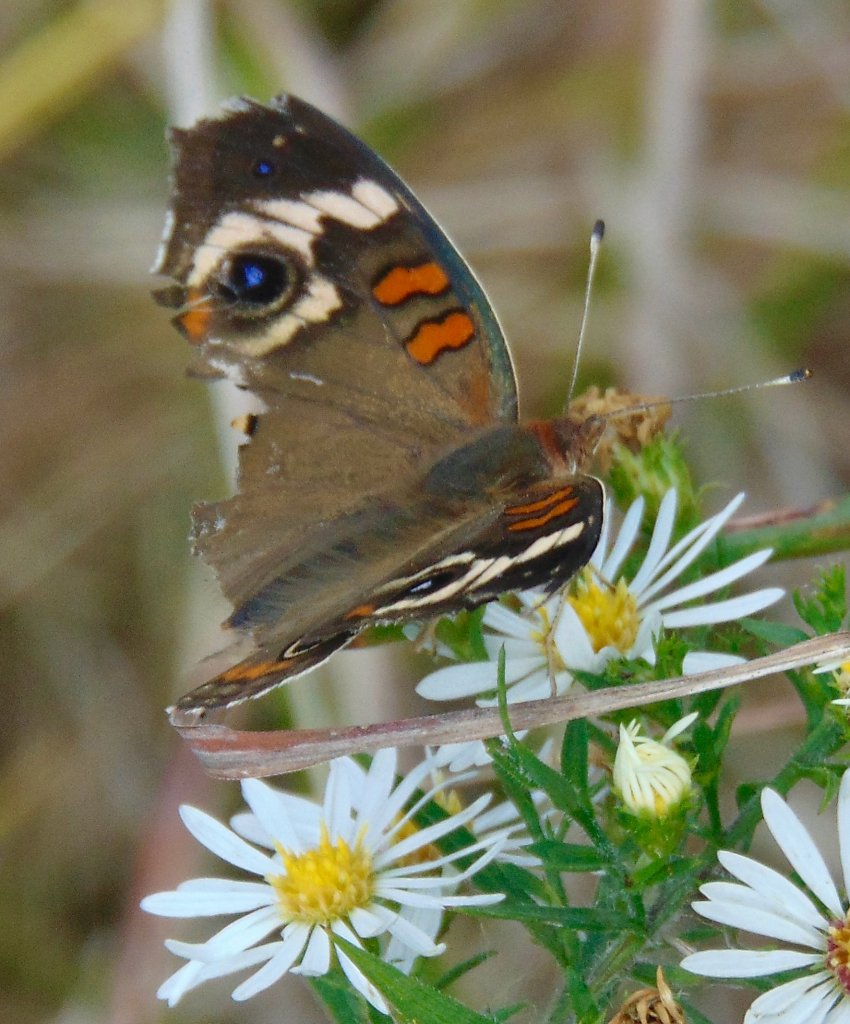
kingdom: Animalia
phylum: Arthropoda
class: Insecta
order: Lepidoptera
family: Nymphalidae
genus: Junonia
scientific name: Junonia coenia
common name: Common Buckeye
